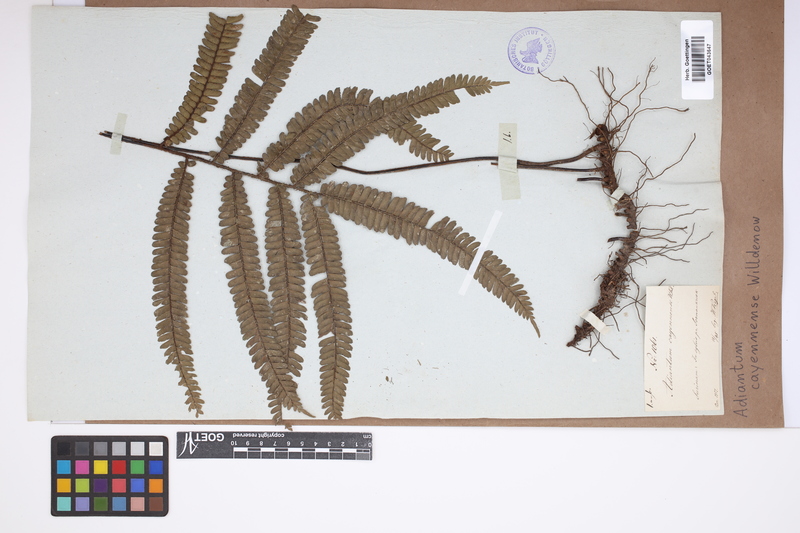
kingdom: Plantae
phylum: Tracheophyta
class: Polypodiopsida
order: Polypodiales
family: Pteridaceae
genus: Adiantum
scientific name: Adiantum cajennense
